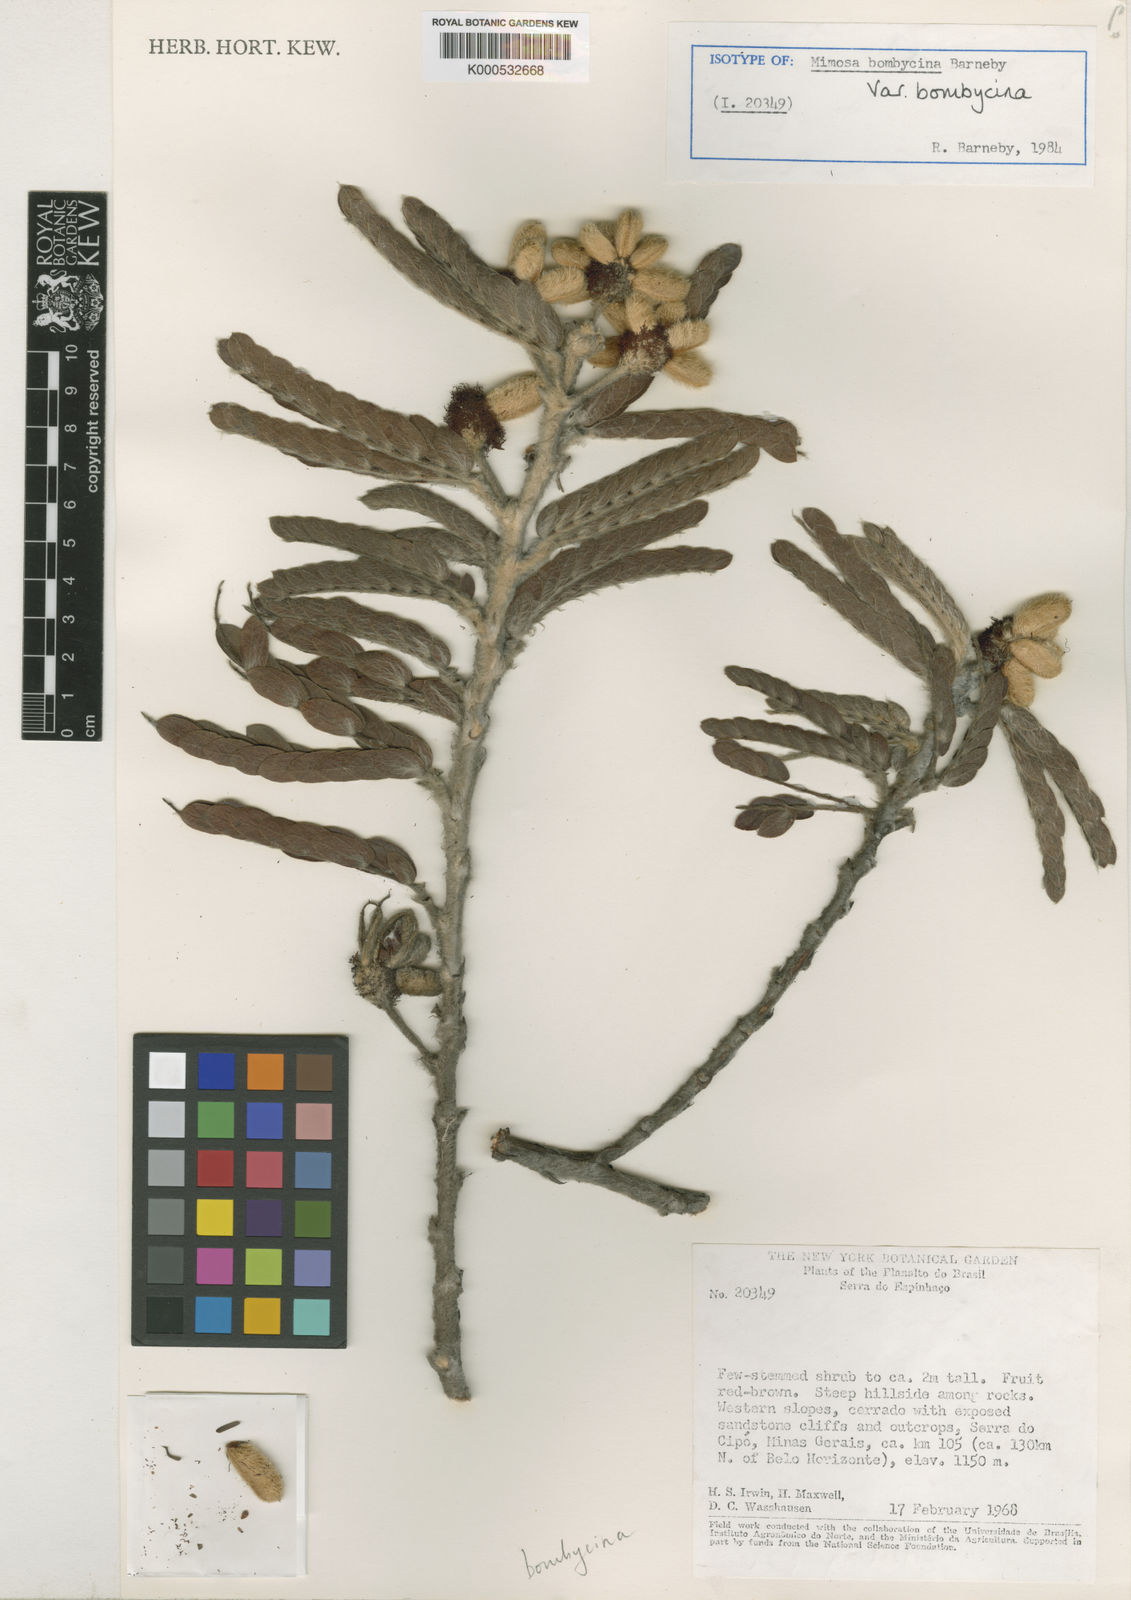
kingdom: Plantae
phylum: Tracheophyta
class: Magnoliopsida
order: Fabales
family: Fabaceae
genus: Mimosa
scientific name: Mimosa bombycina
